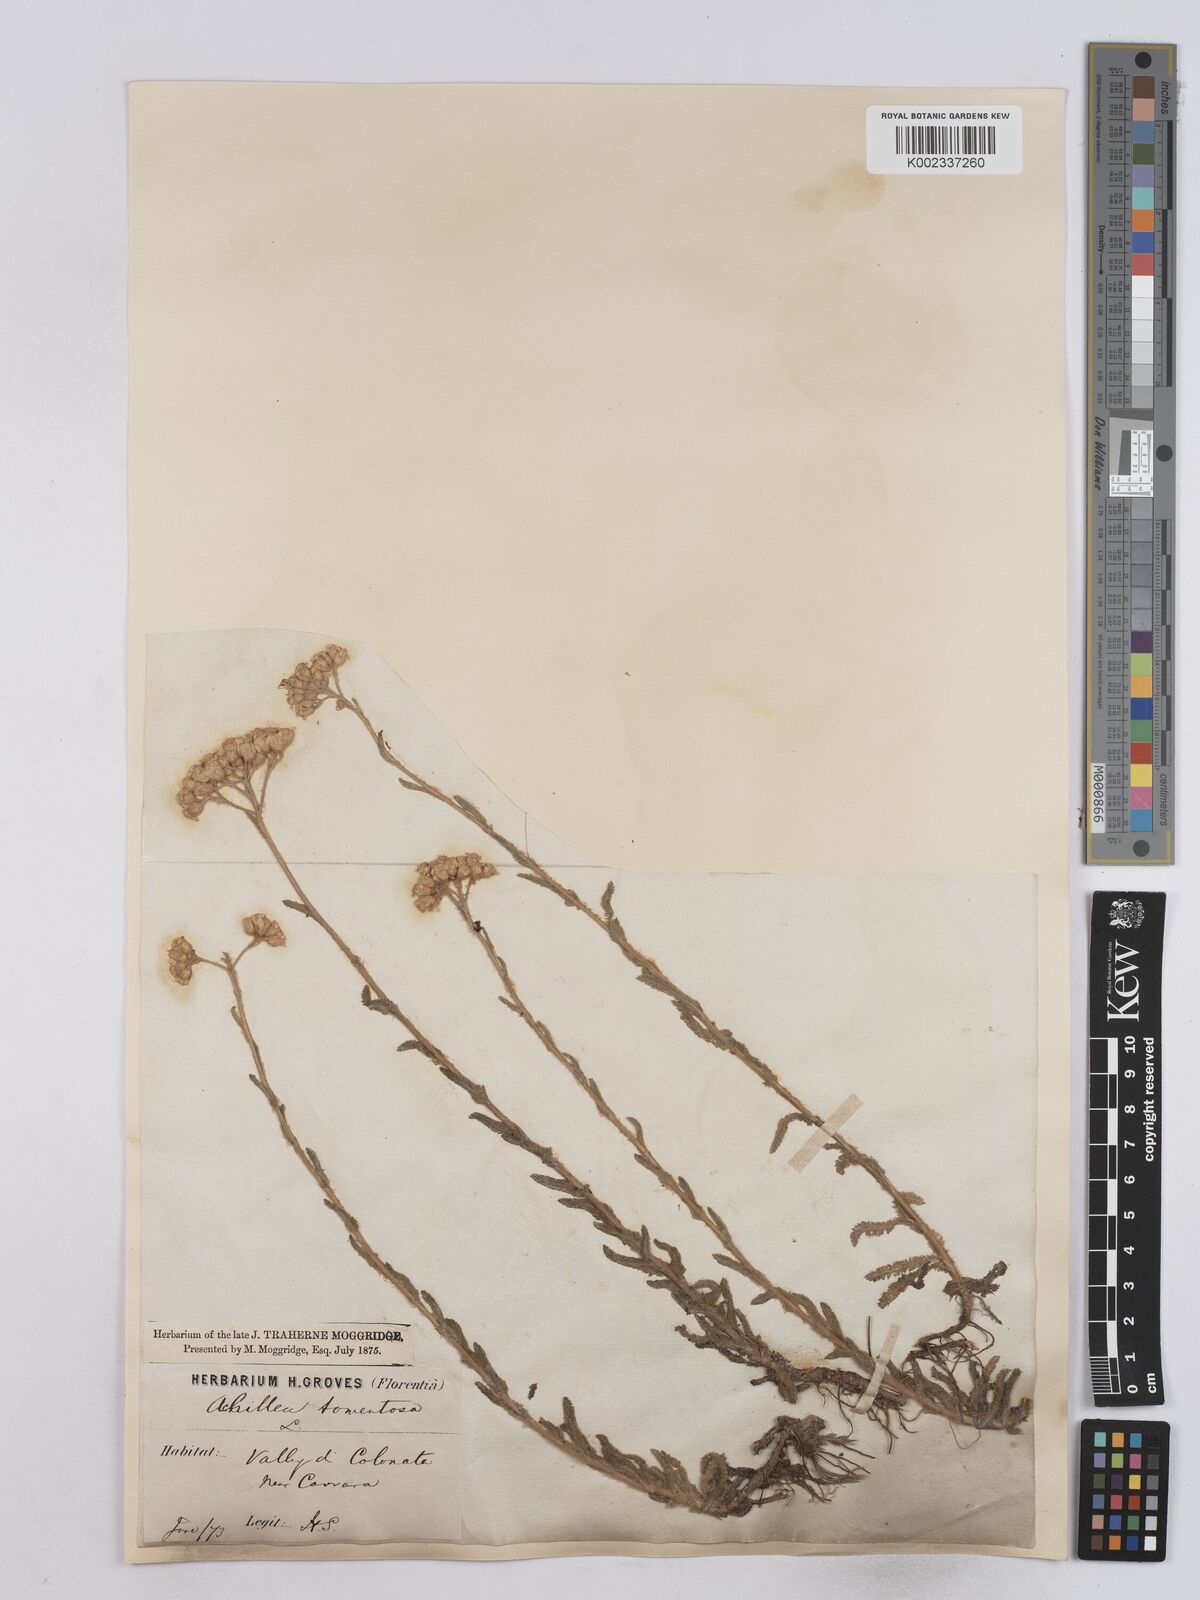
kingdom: Plantae
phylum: Tracheophyta
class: Magnoliopsida
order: Asterales
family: Asteraceae
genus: Achillea
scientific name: Achillea tomentosa
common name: Yellow milfoil
